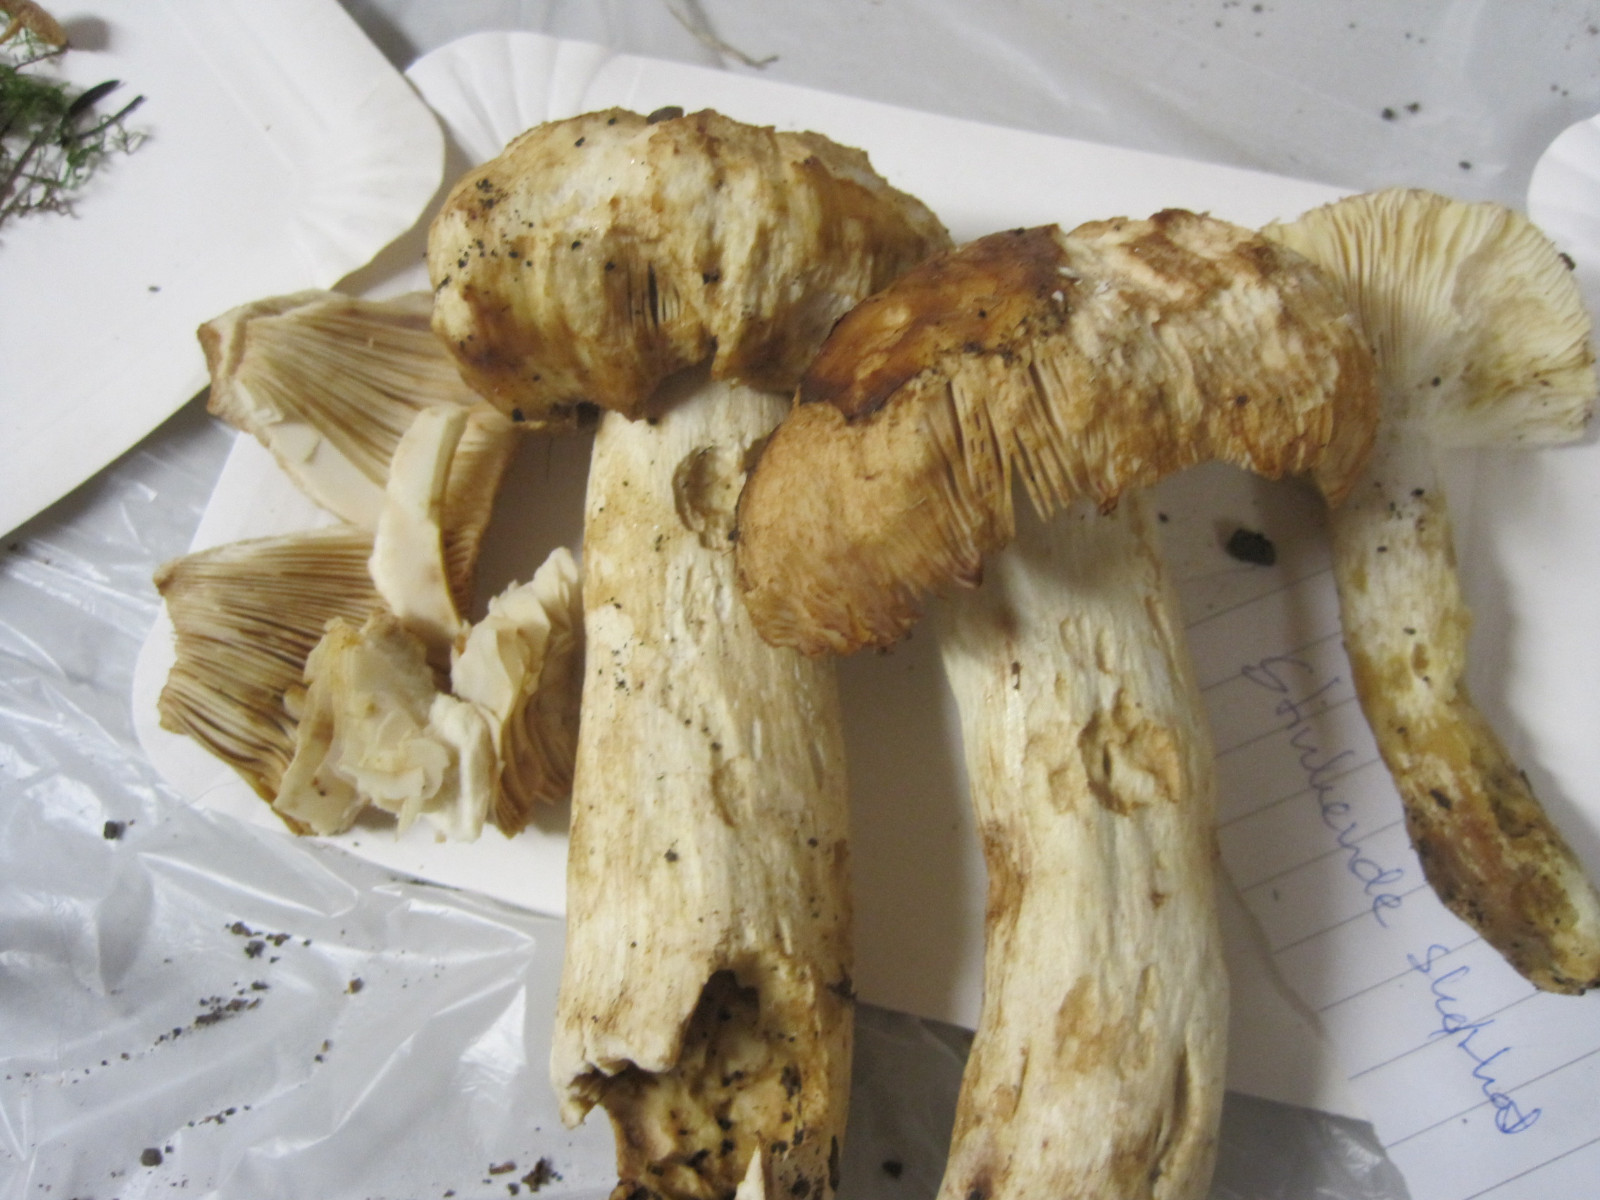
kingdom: Fungi
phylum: Basidiomycota
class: Agaricomycetes
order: Russulales
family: Russulaceae
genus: Russula
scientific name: Russula foetens
